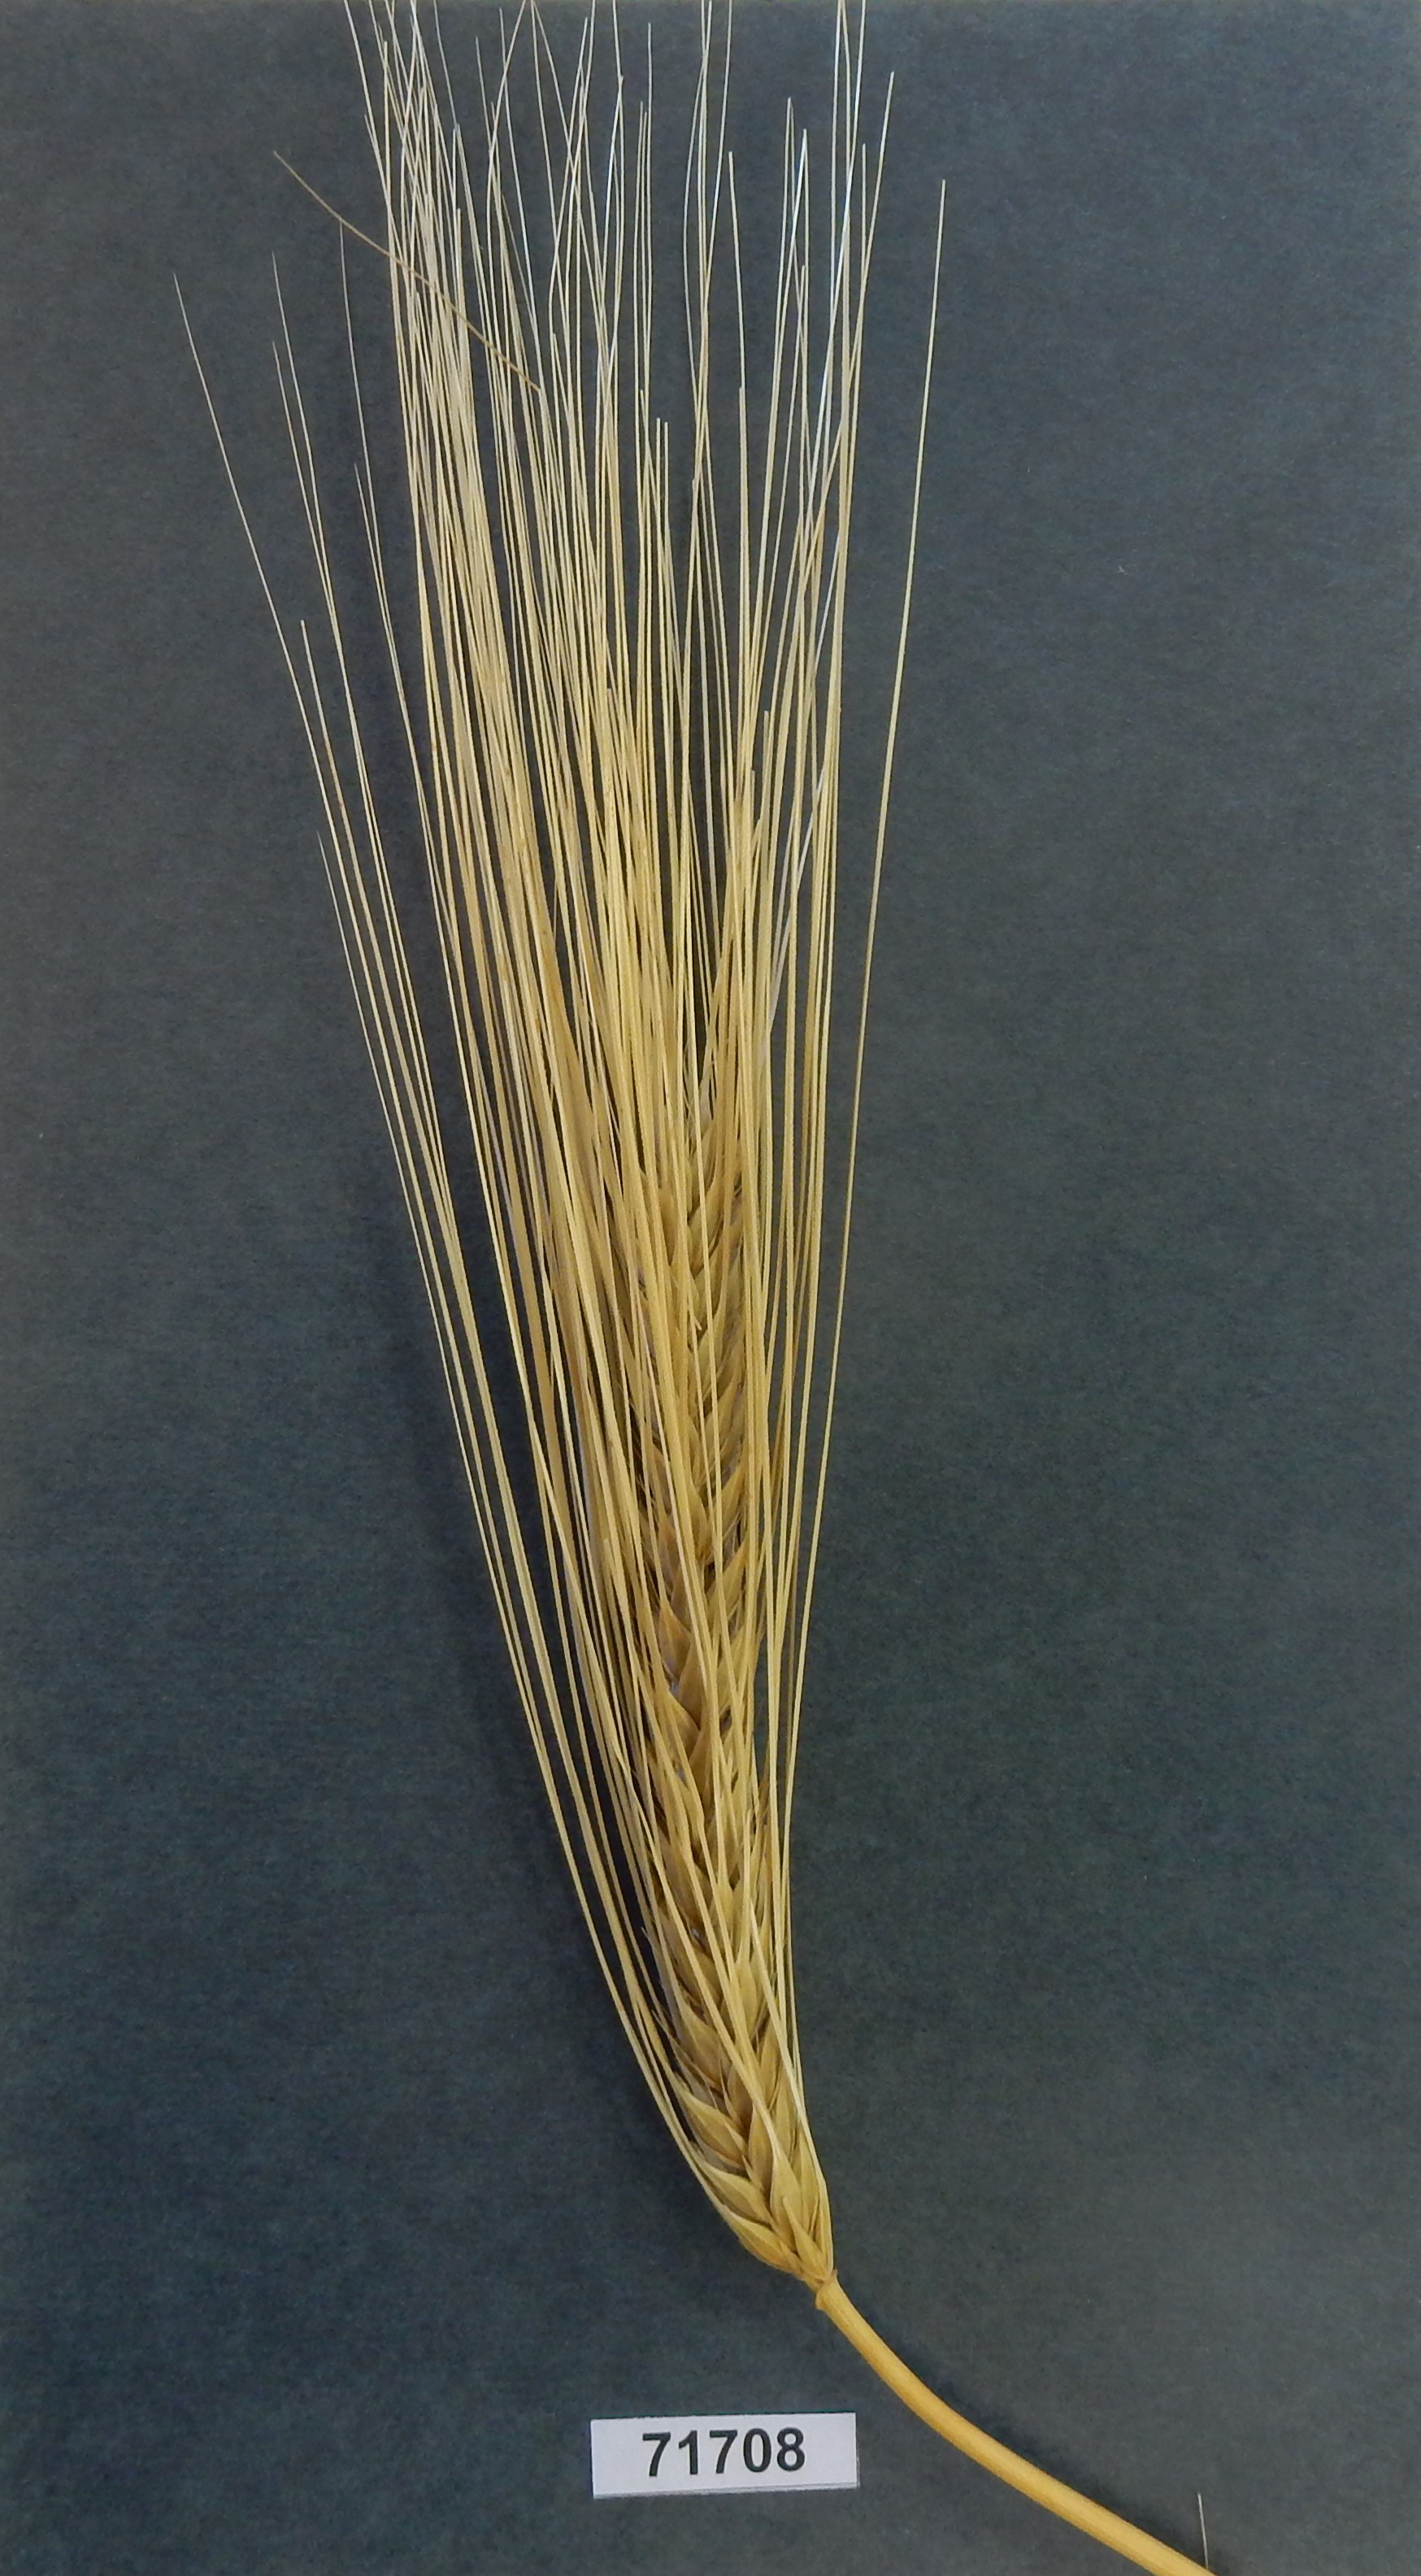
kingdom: Plantae
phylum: Tracheophyta
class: Liliopsida
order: Poales
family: Poaceae
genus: Hordeum
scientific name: Hordeum vulgare
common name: Barley
